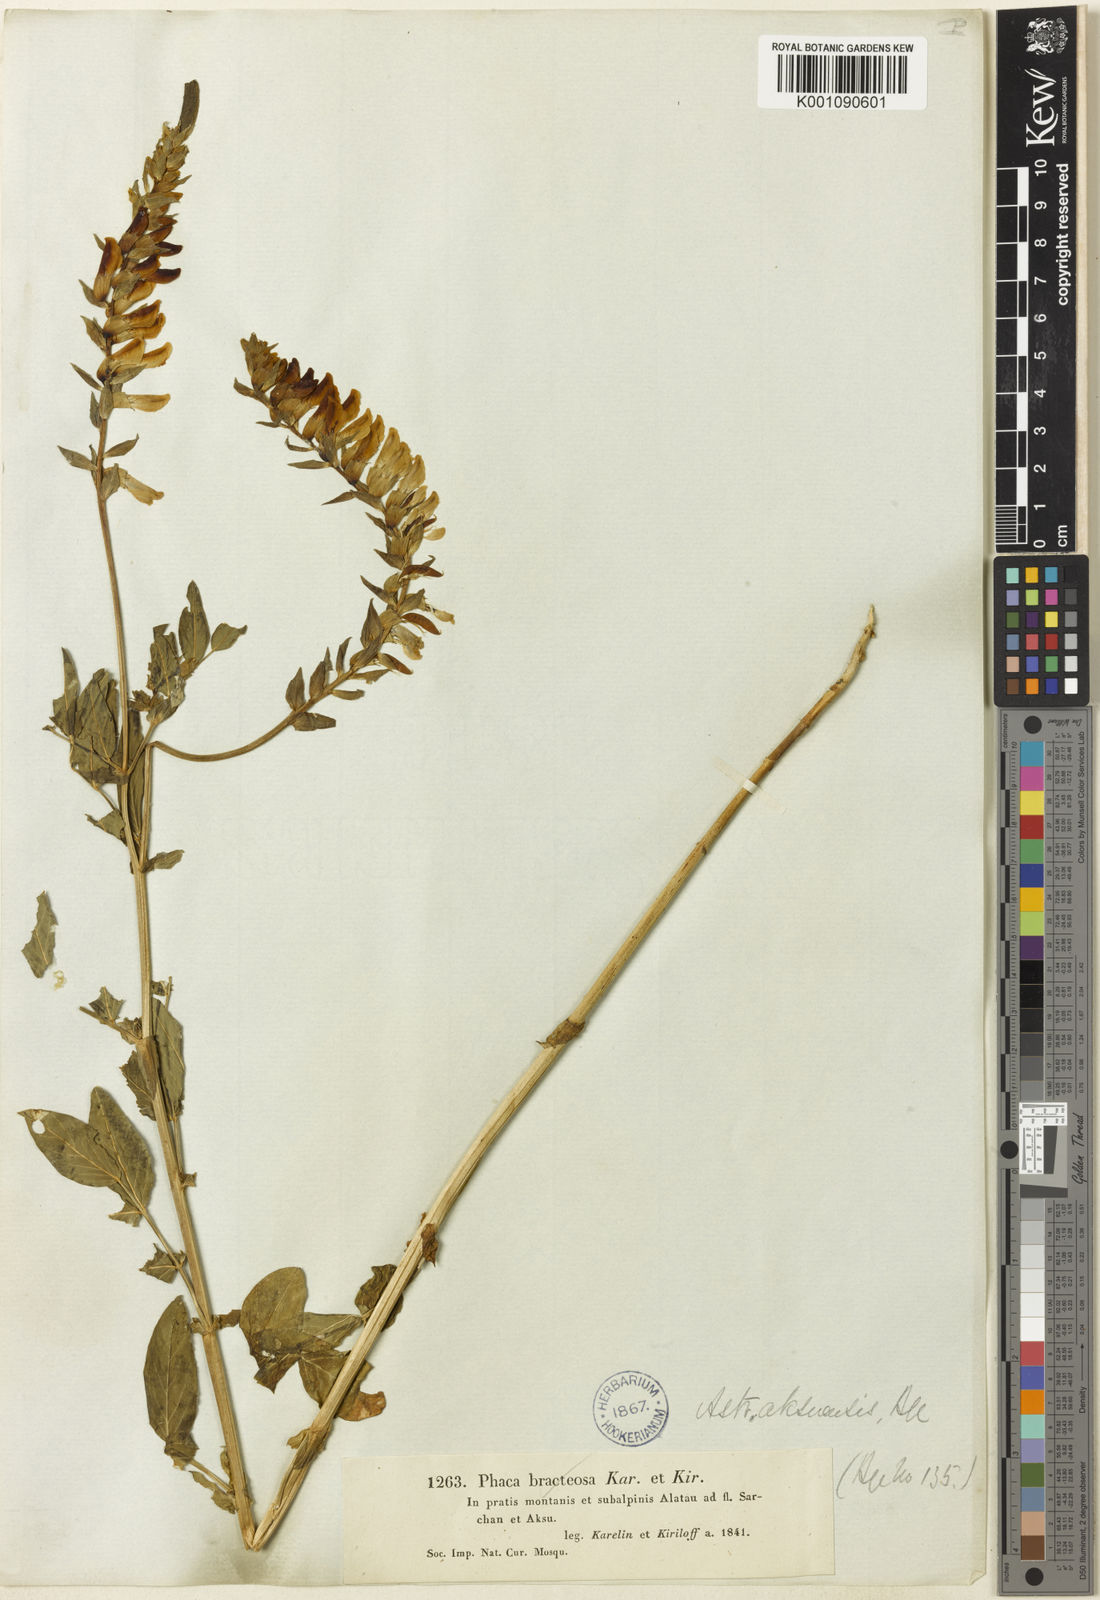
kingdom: Plantae
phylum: Tracheophyta
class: Magnoliopsida
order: Fabales
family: Fabaceae
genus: Astragalus
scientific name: Astragalus
